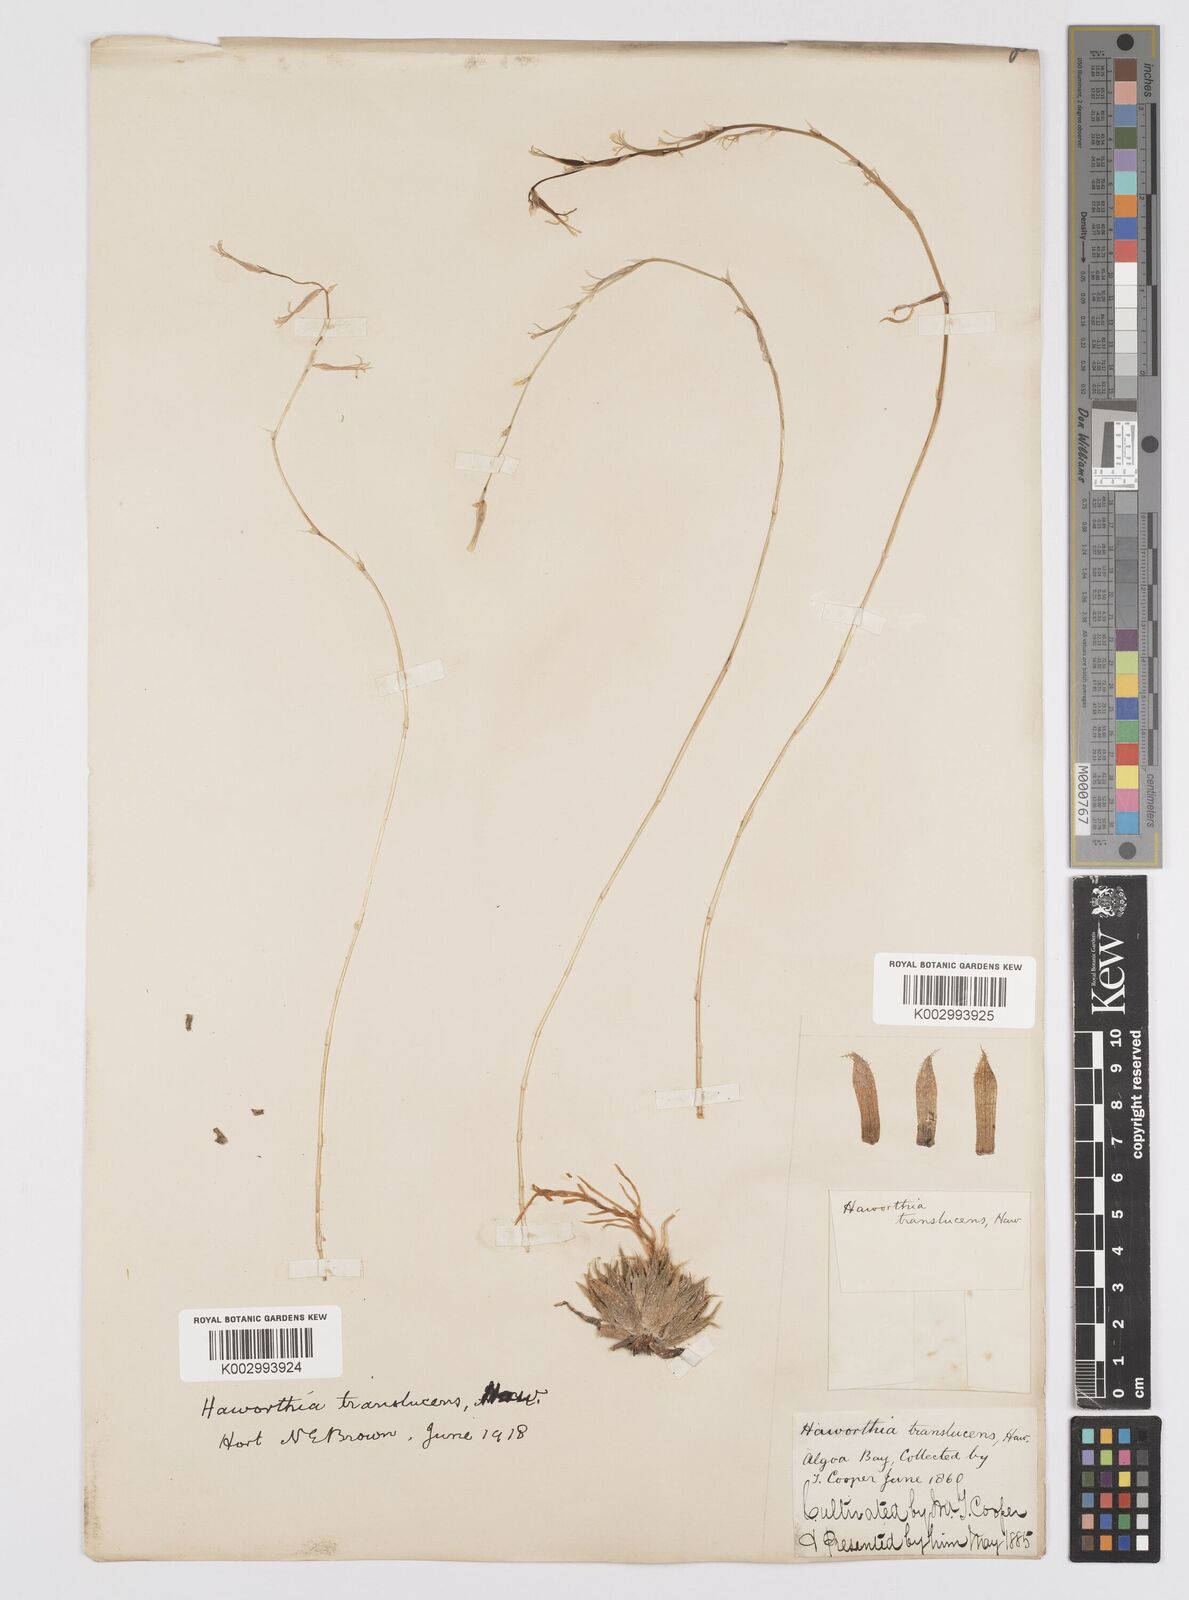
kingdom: Plantae
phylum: Tracheophyta
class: Liliopsida
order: Asparagales
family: Asphodelaceae
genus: Haworthia
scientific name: Haworthia herbacea
